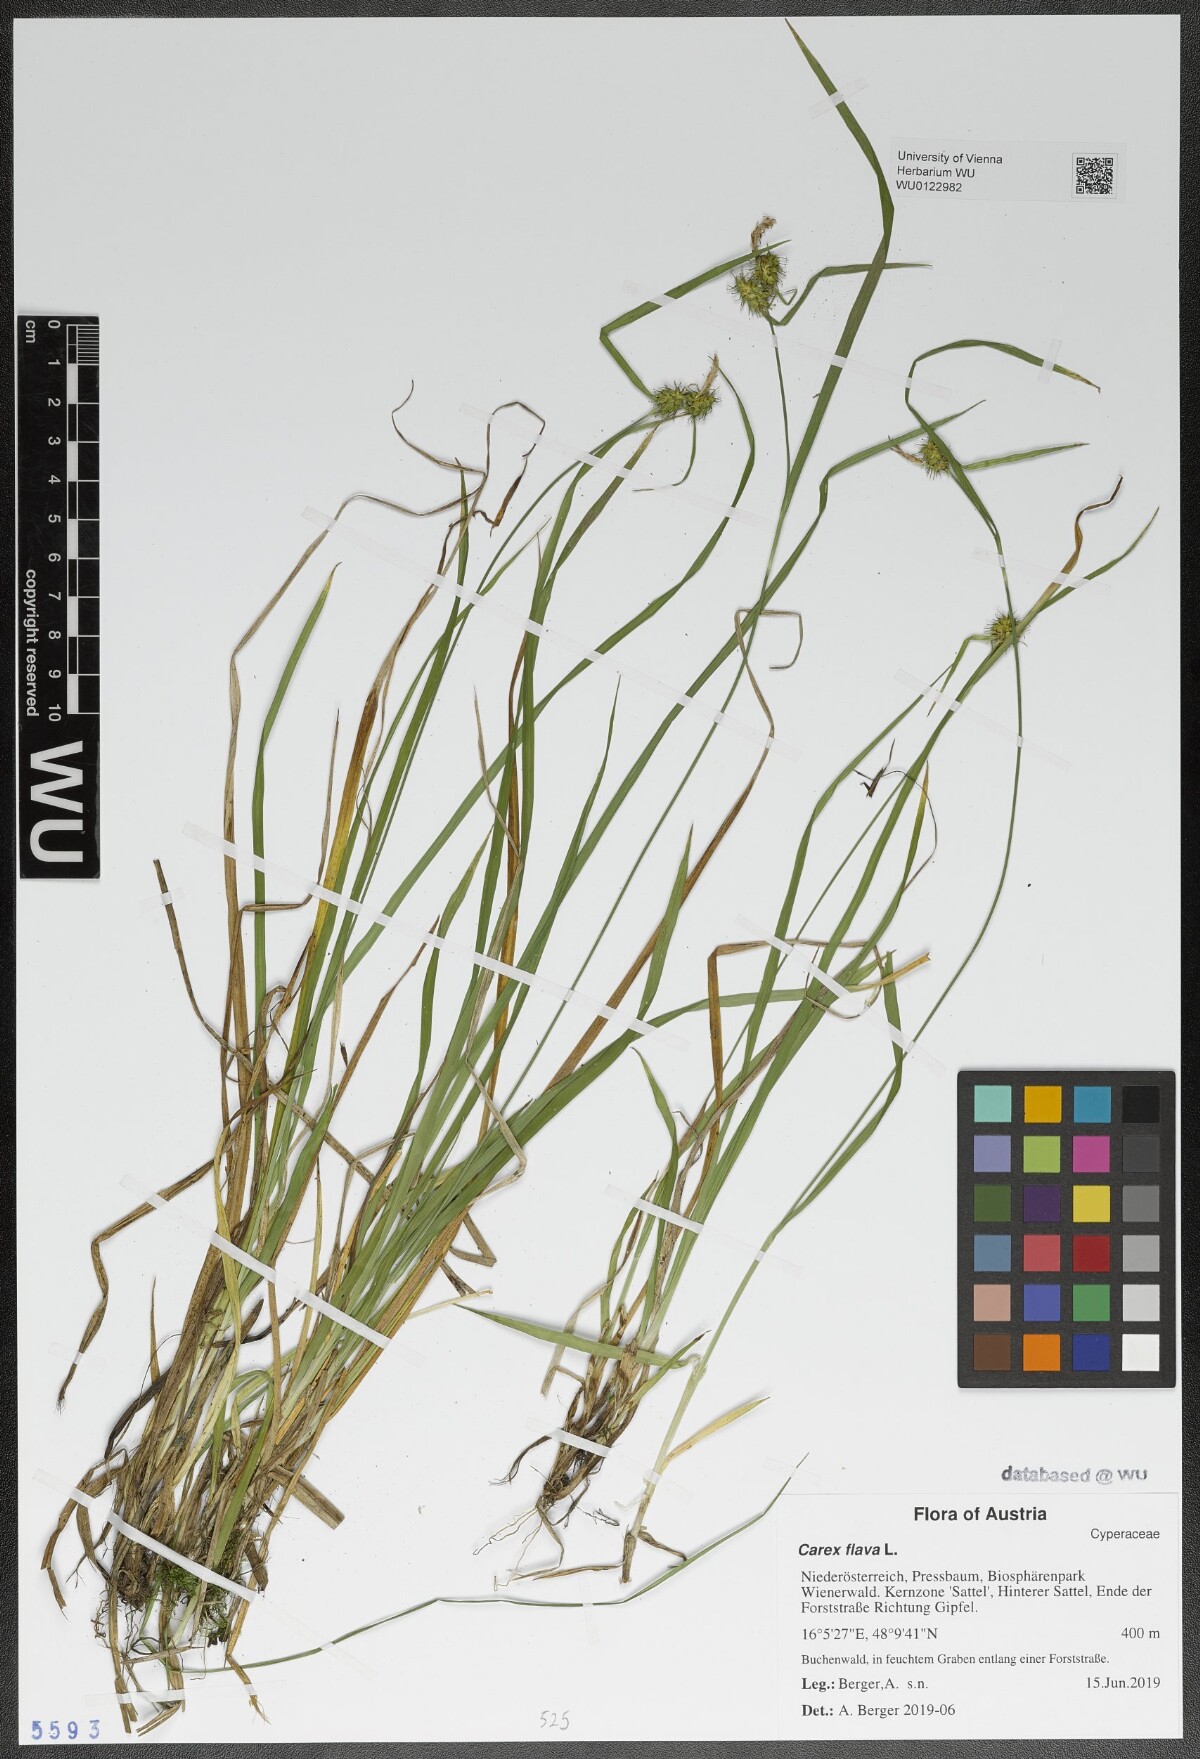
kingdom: Plantae
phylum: Tracheophyta
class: Liliopsida
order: Poales
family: Cyperaceae
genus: Carex
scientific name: Carex flava
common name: Large yellow-sedge
